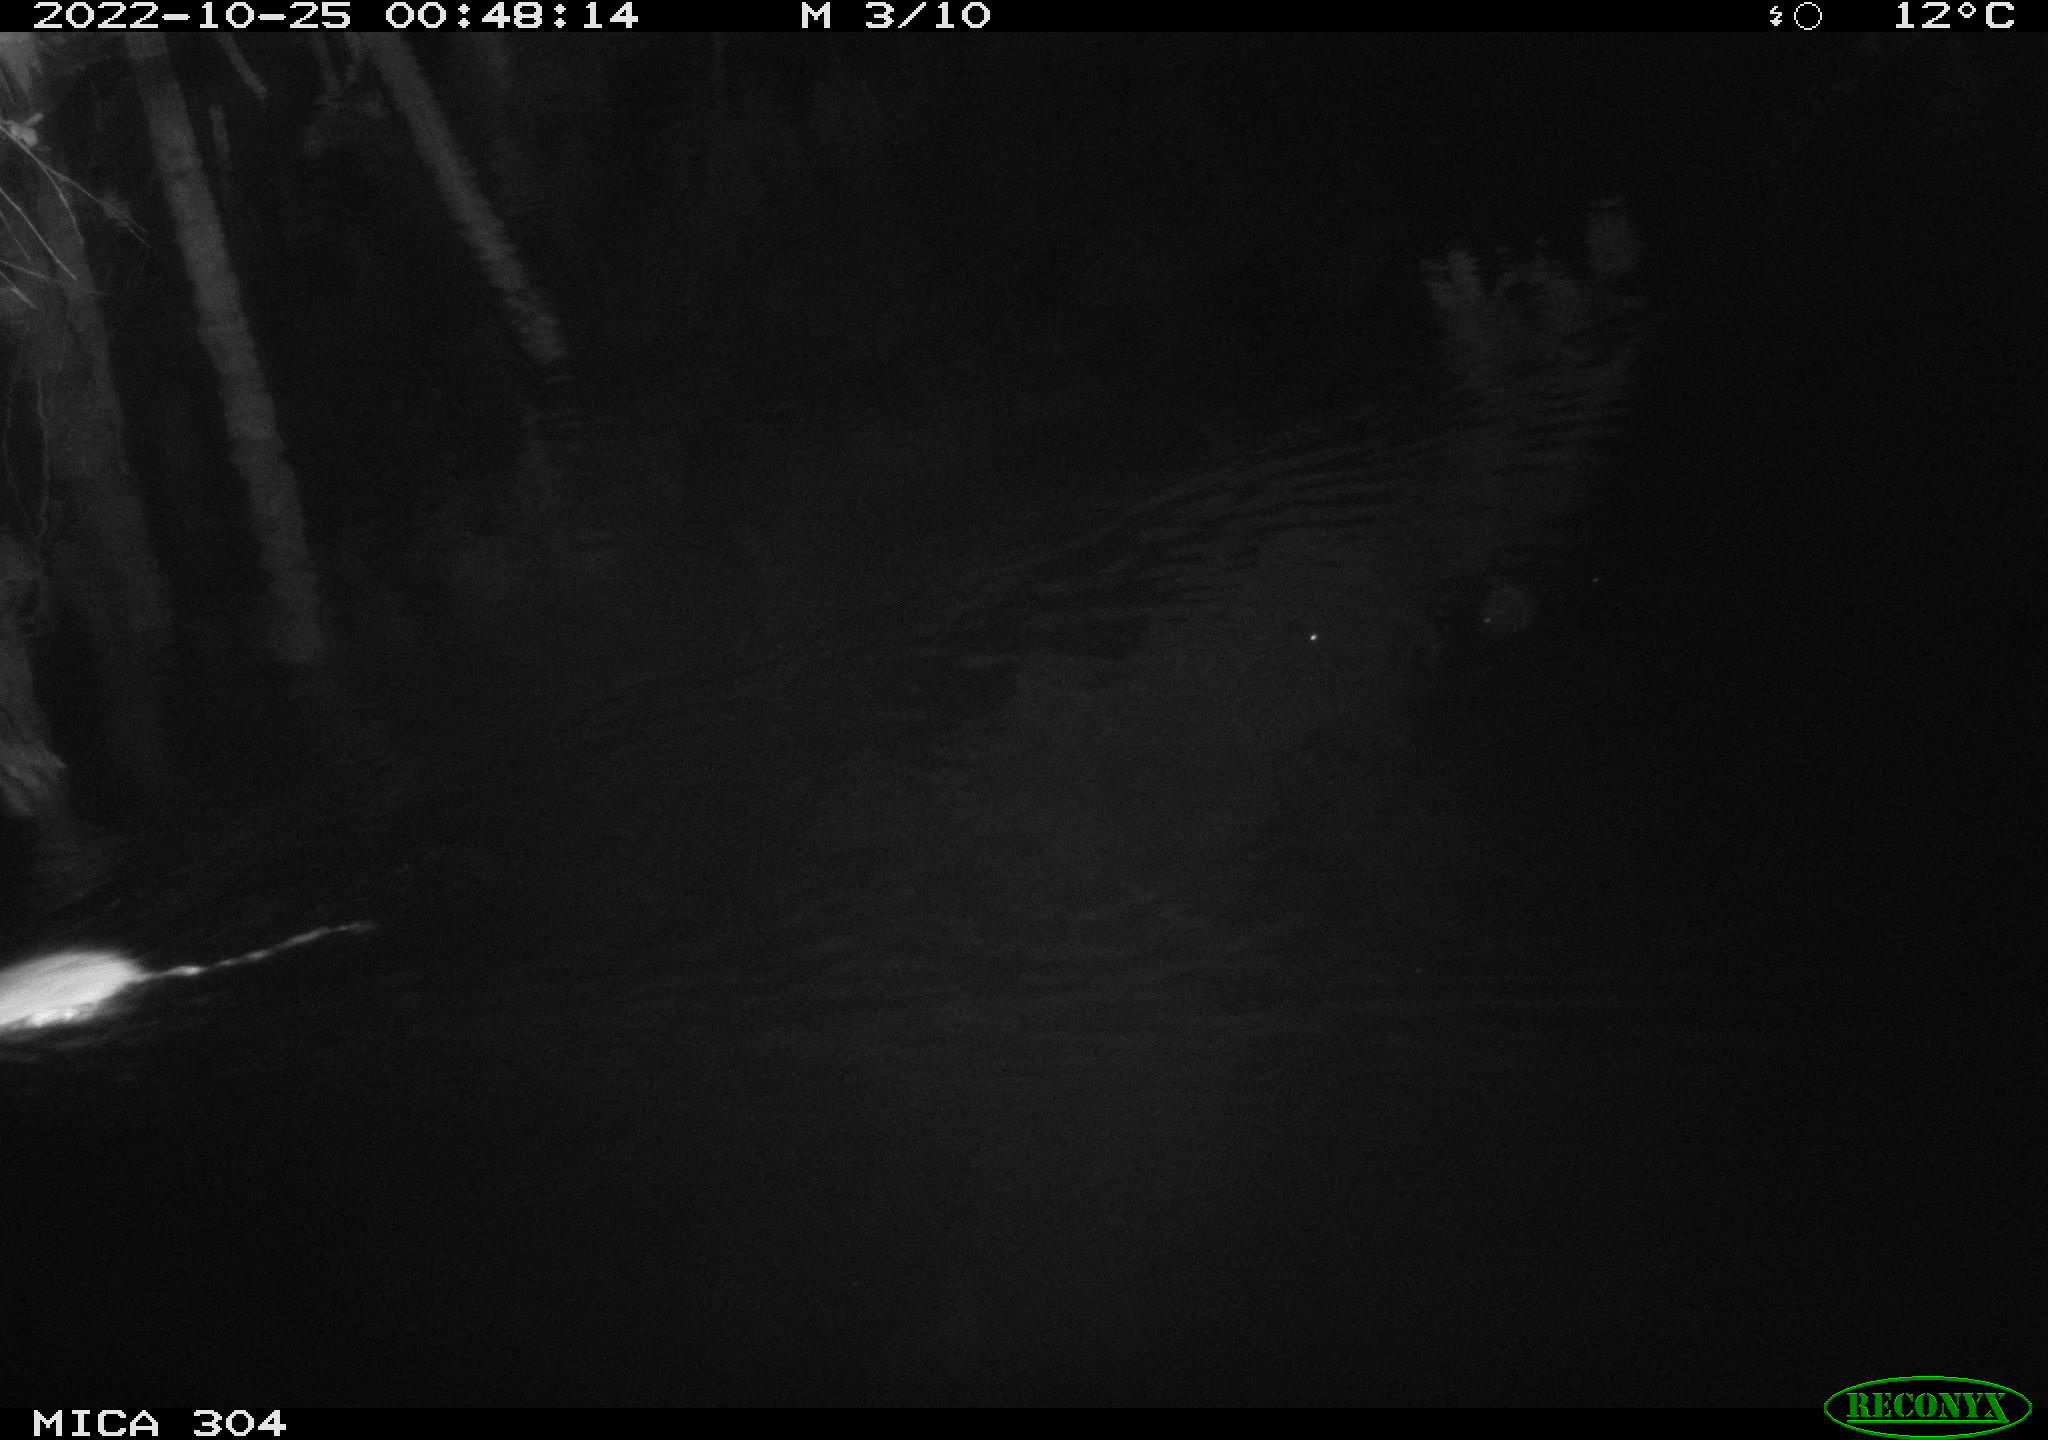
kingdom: Animalia
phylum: Chordata
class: Mammalia
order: Rodentia
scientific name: Rodentia
